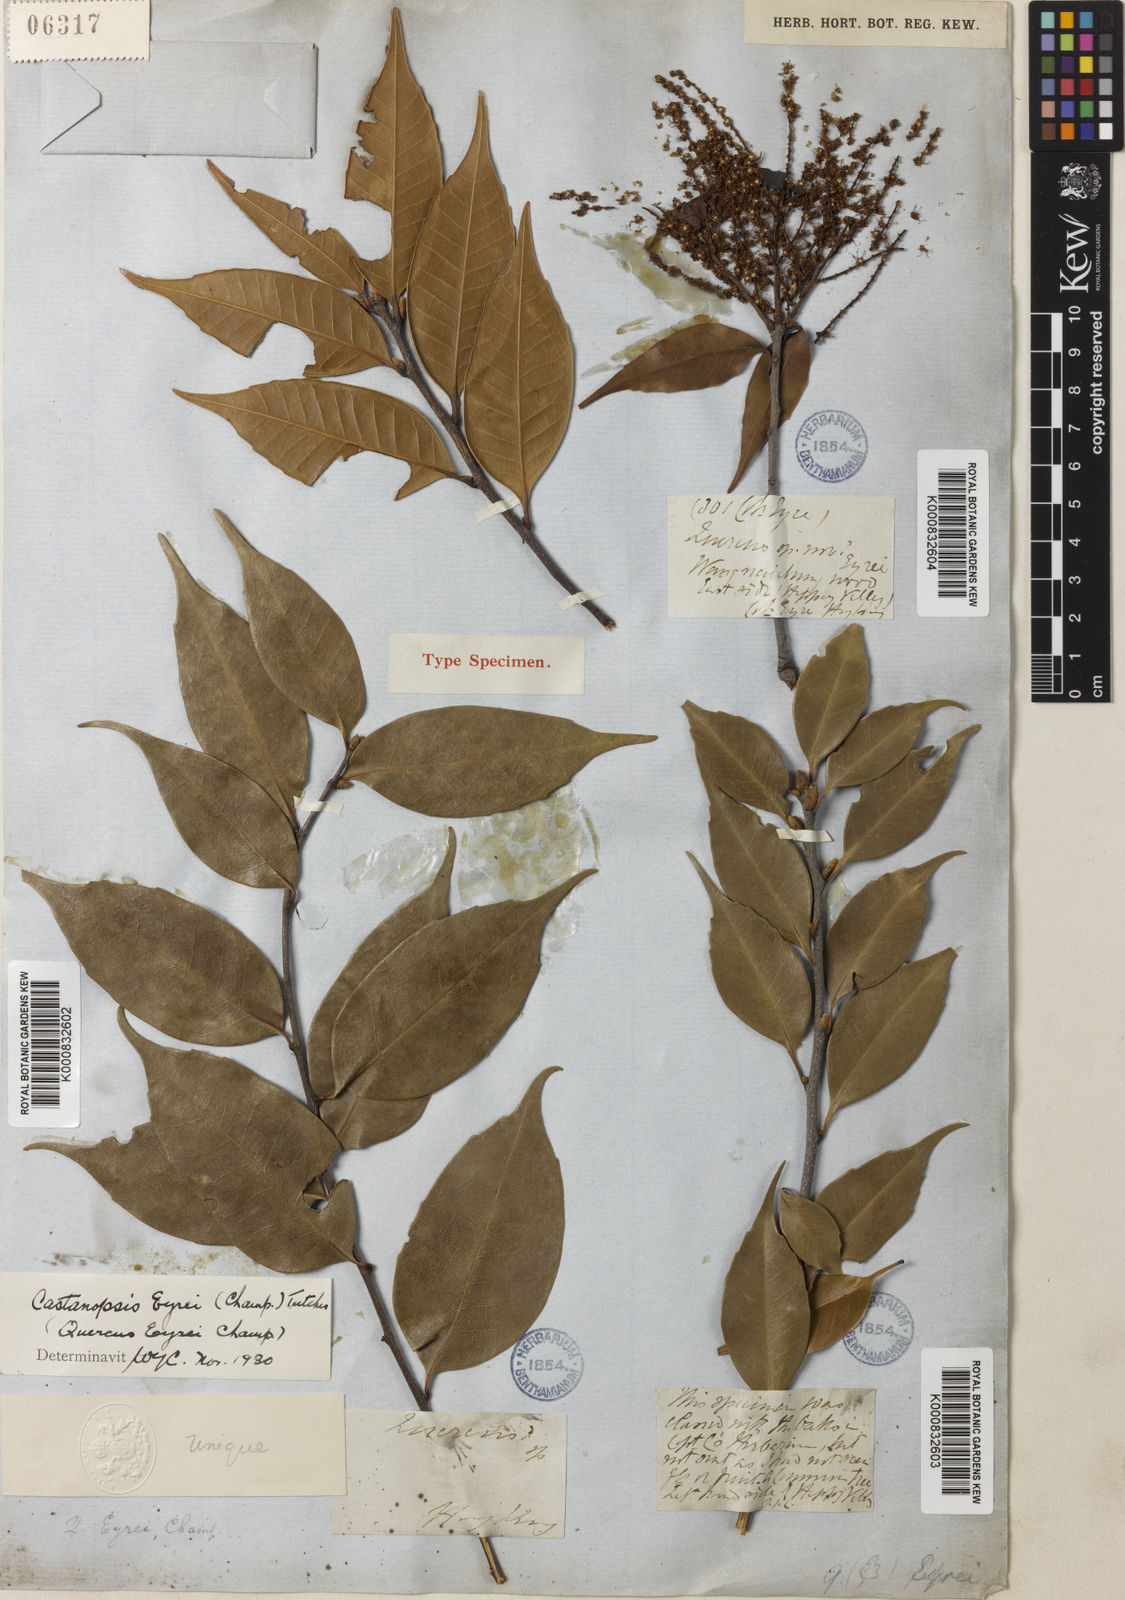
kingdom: Plantae
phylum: Tracheophyta
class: Magnoliopsida
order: Fagales
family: Fagaceae
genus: Castanopsis
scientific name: Castanopsis eyrei
